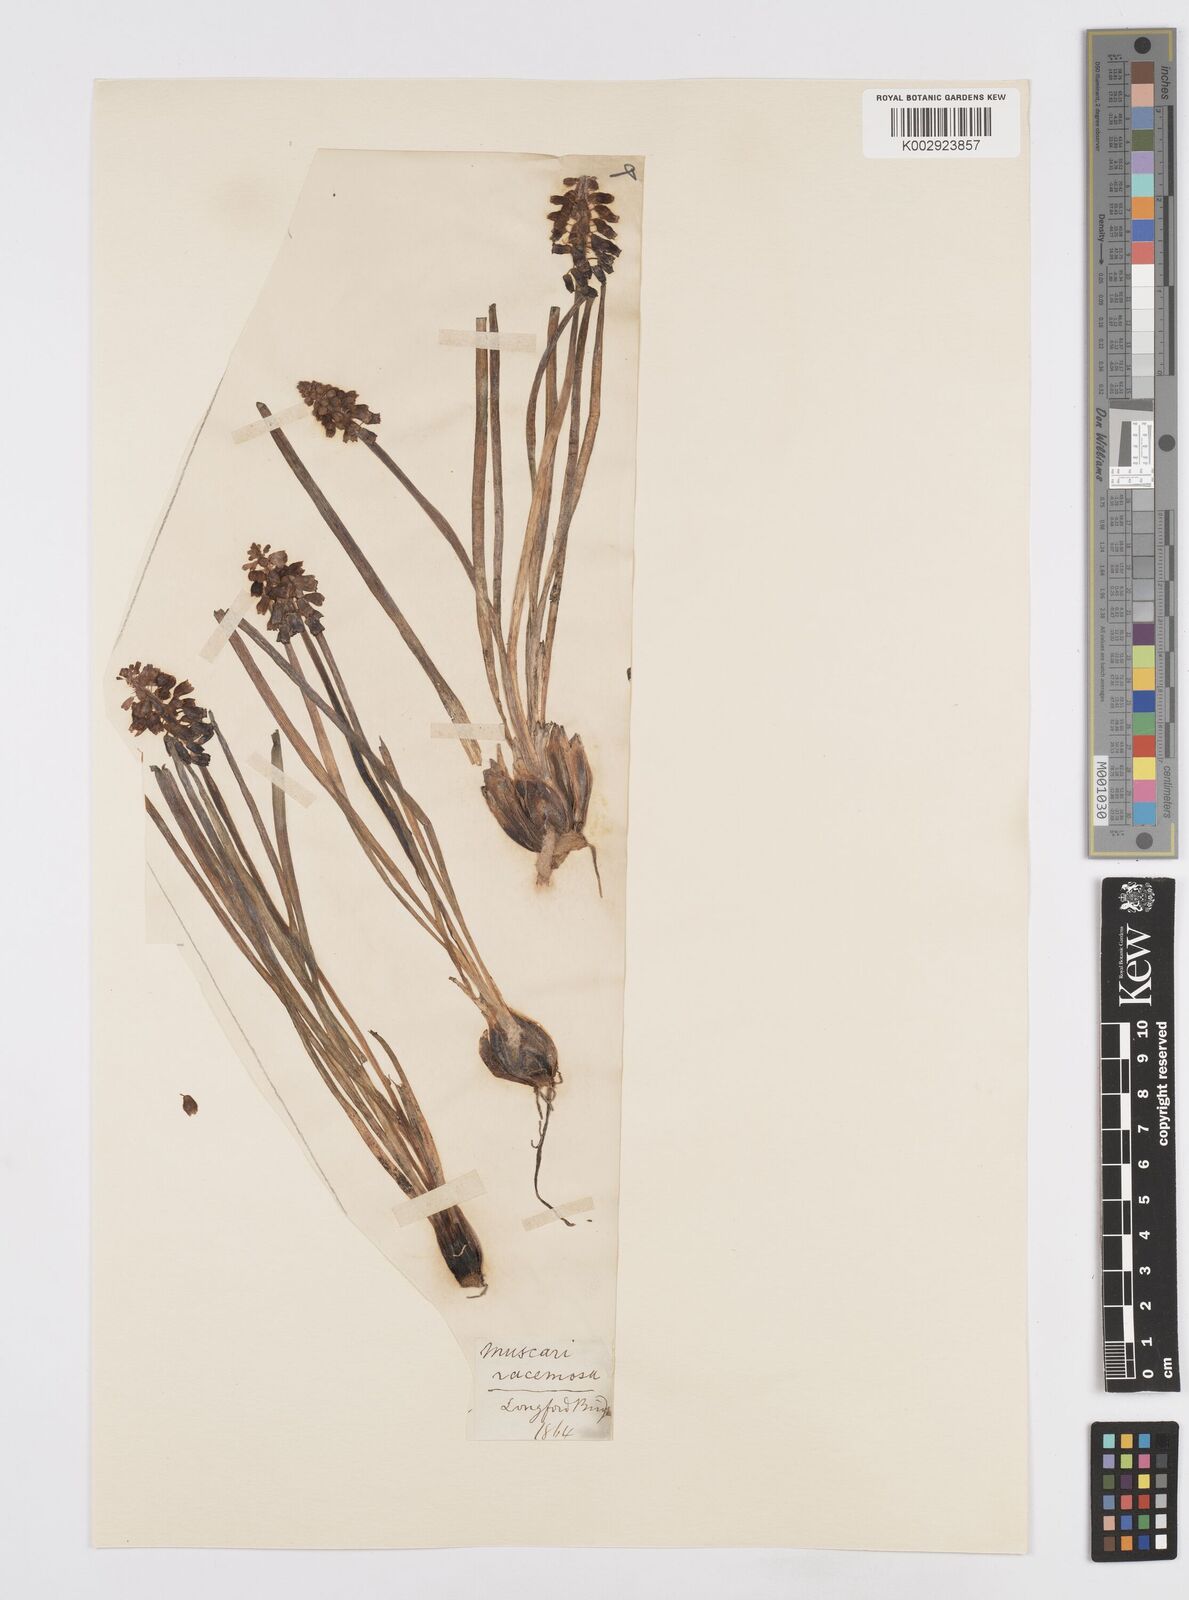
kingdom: Plantae
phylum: Tracheophyta
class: Liliopsida
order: Asparagales
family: Asparagaceae
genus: Muscari
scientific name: Muscari neglectum
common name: Grape-hyacinth
